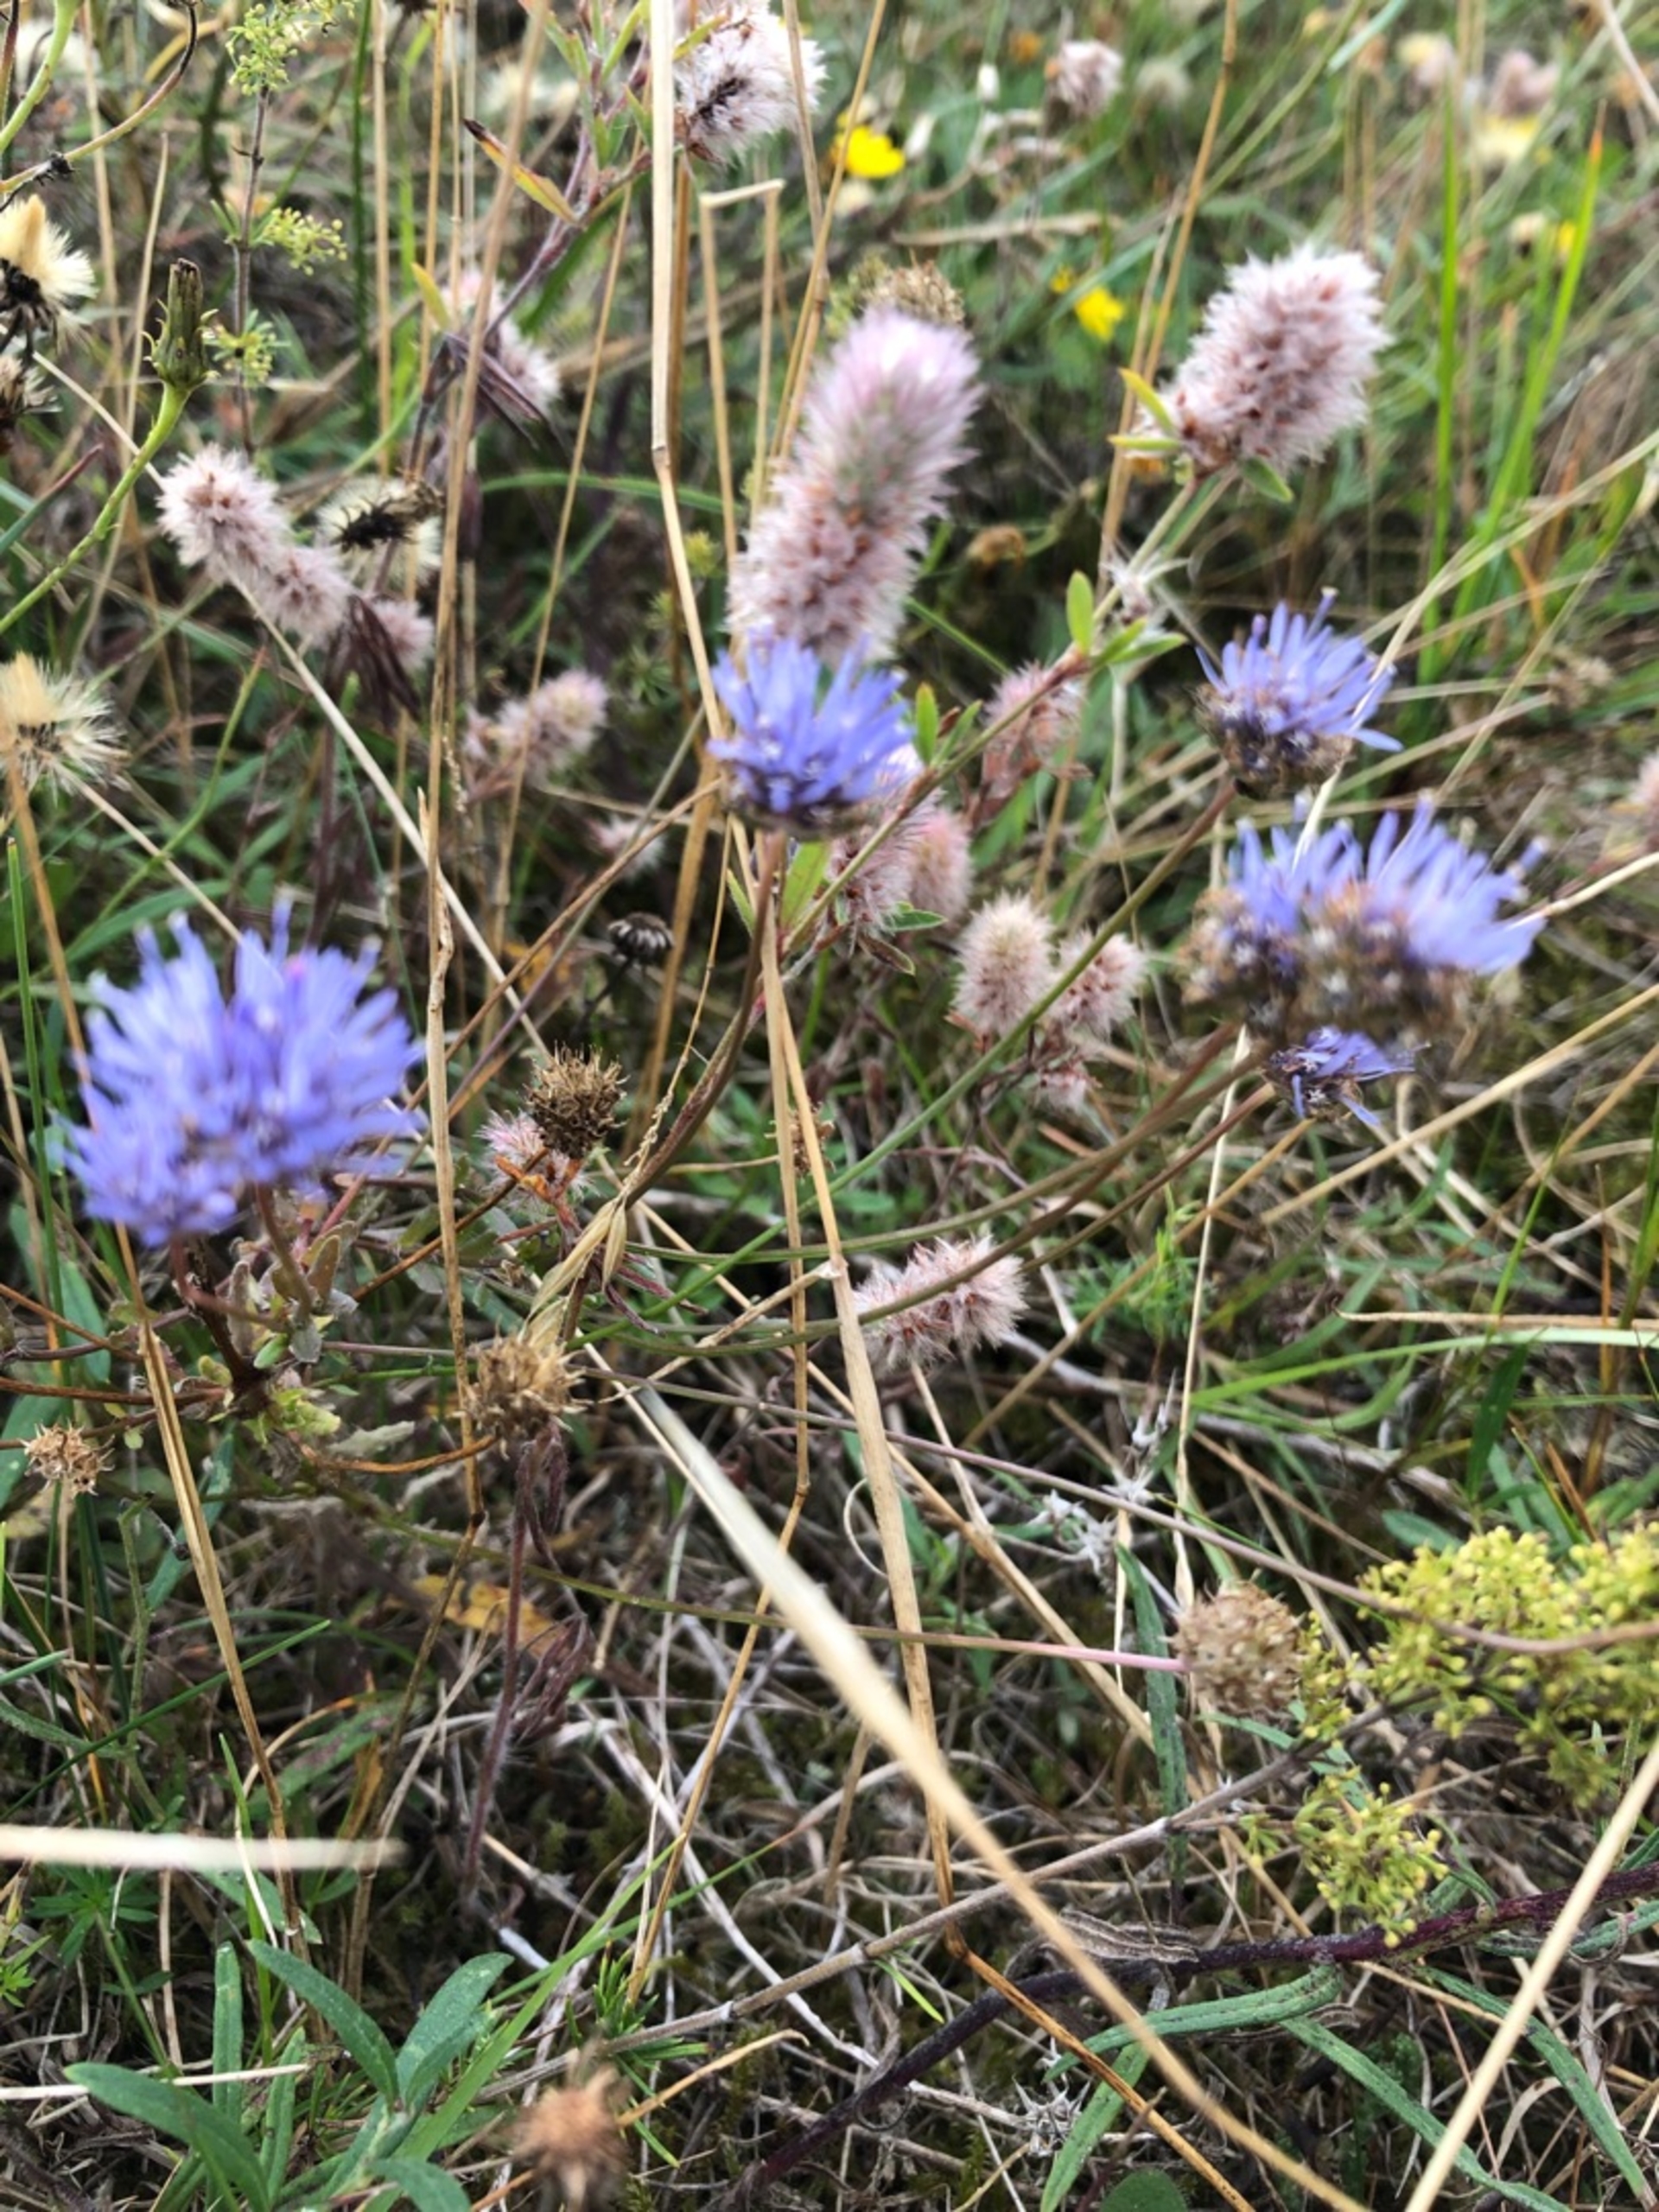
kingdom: Plantae
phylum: Tracheophyta
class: Magnoliopsida
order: Asterales
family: Campanulaceae
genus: Jasione
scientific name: Jasione montana
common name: Blåmunke
